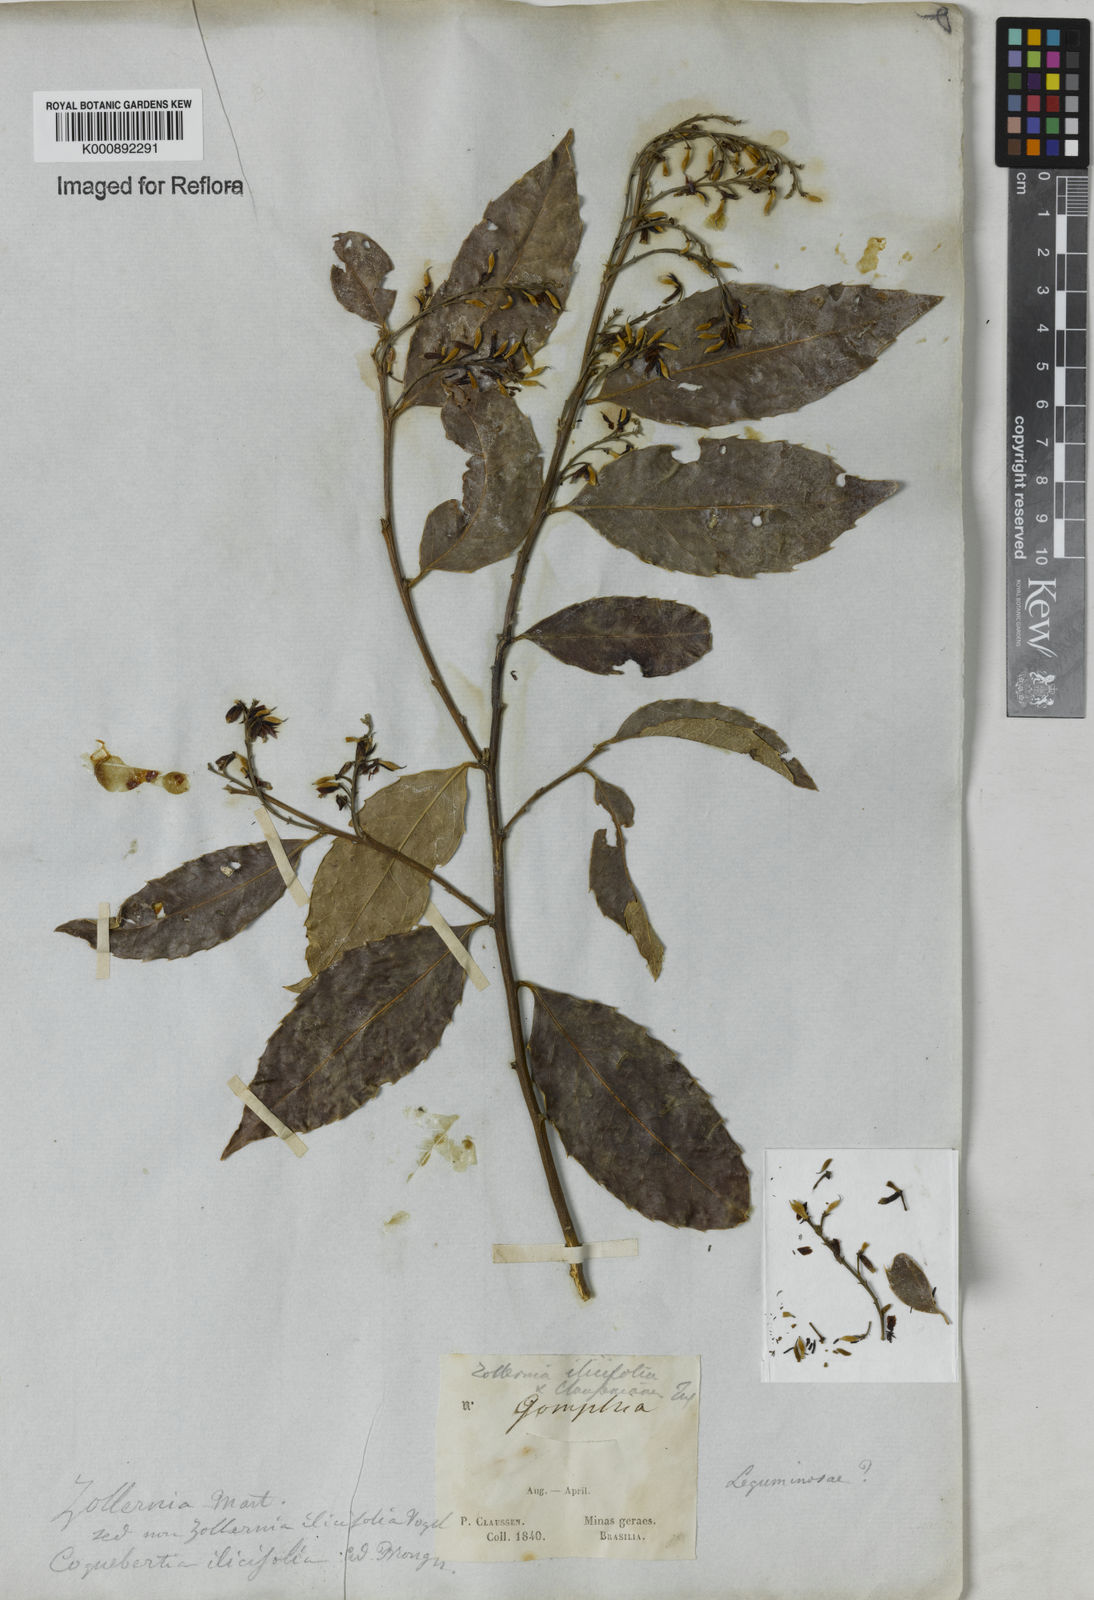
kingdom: Plantae
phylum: Tracheophyta
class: Magnoliopsida
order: Fabales
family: Fabaceae
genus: Zollernia
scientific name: Zollernia ilicifolia
